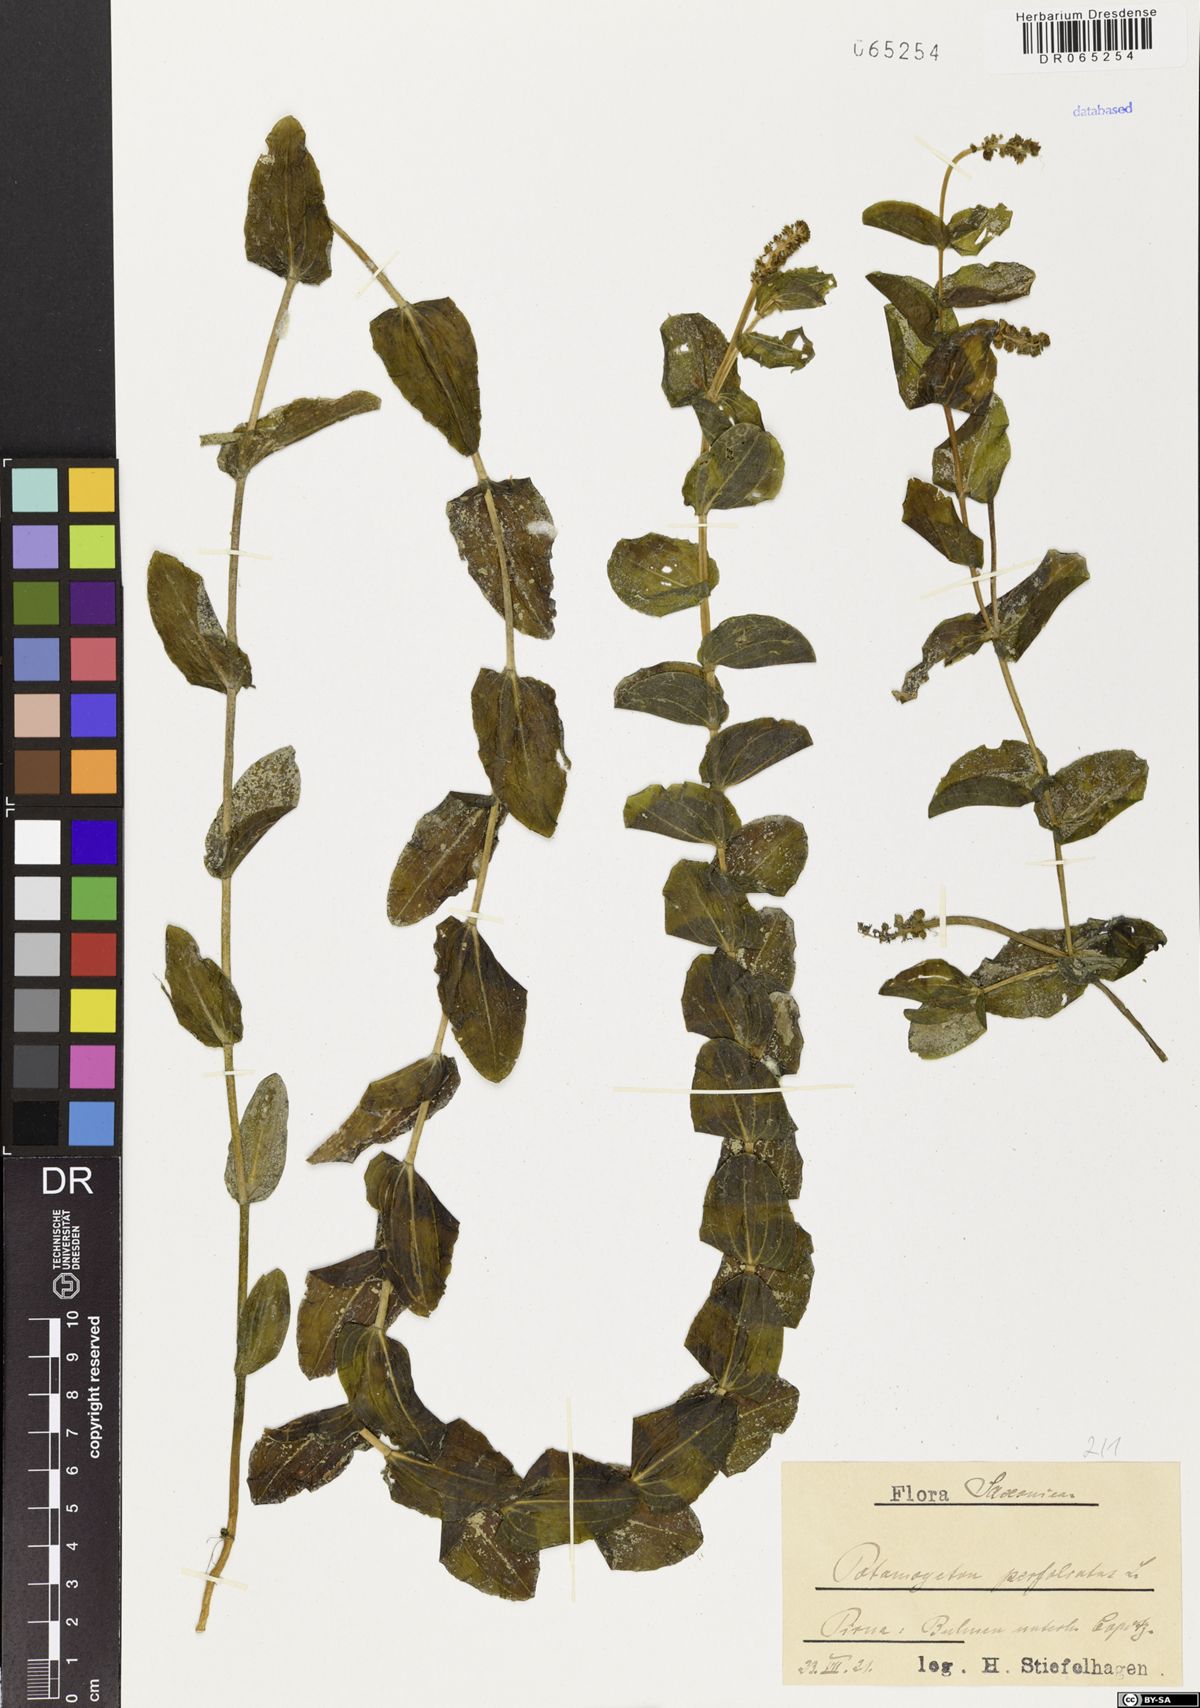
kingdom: Plantae
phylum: Tracheophyta
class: Liliopsida
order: Alismatales
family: Potamogetonaceae
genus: Potamogeton
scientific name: Potamogeton perfoliatus
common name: Perfoliate pondweed
